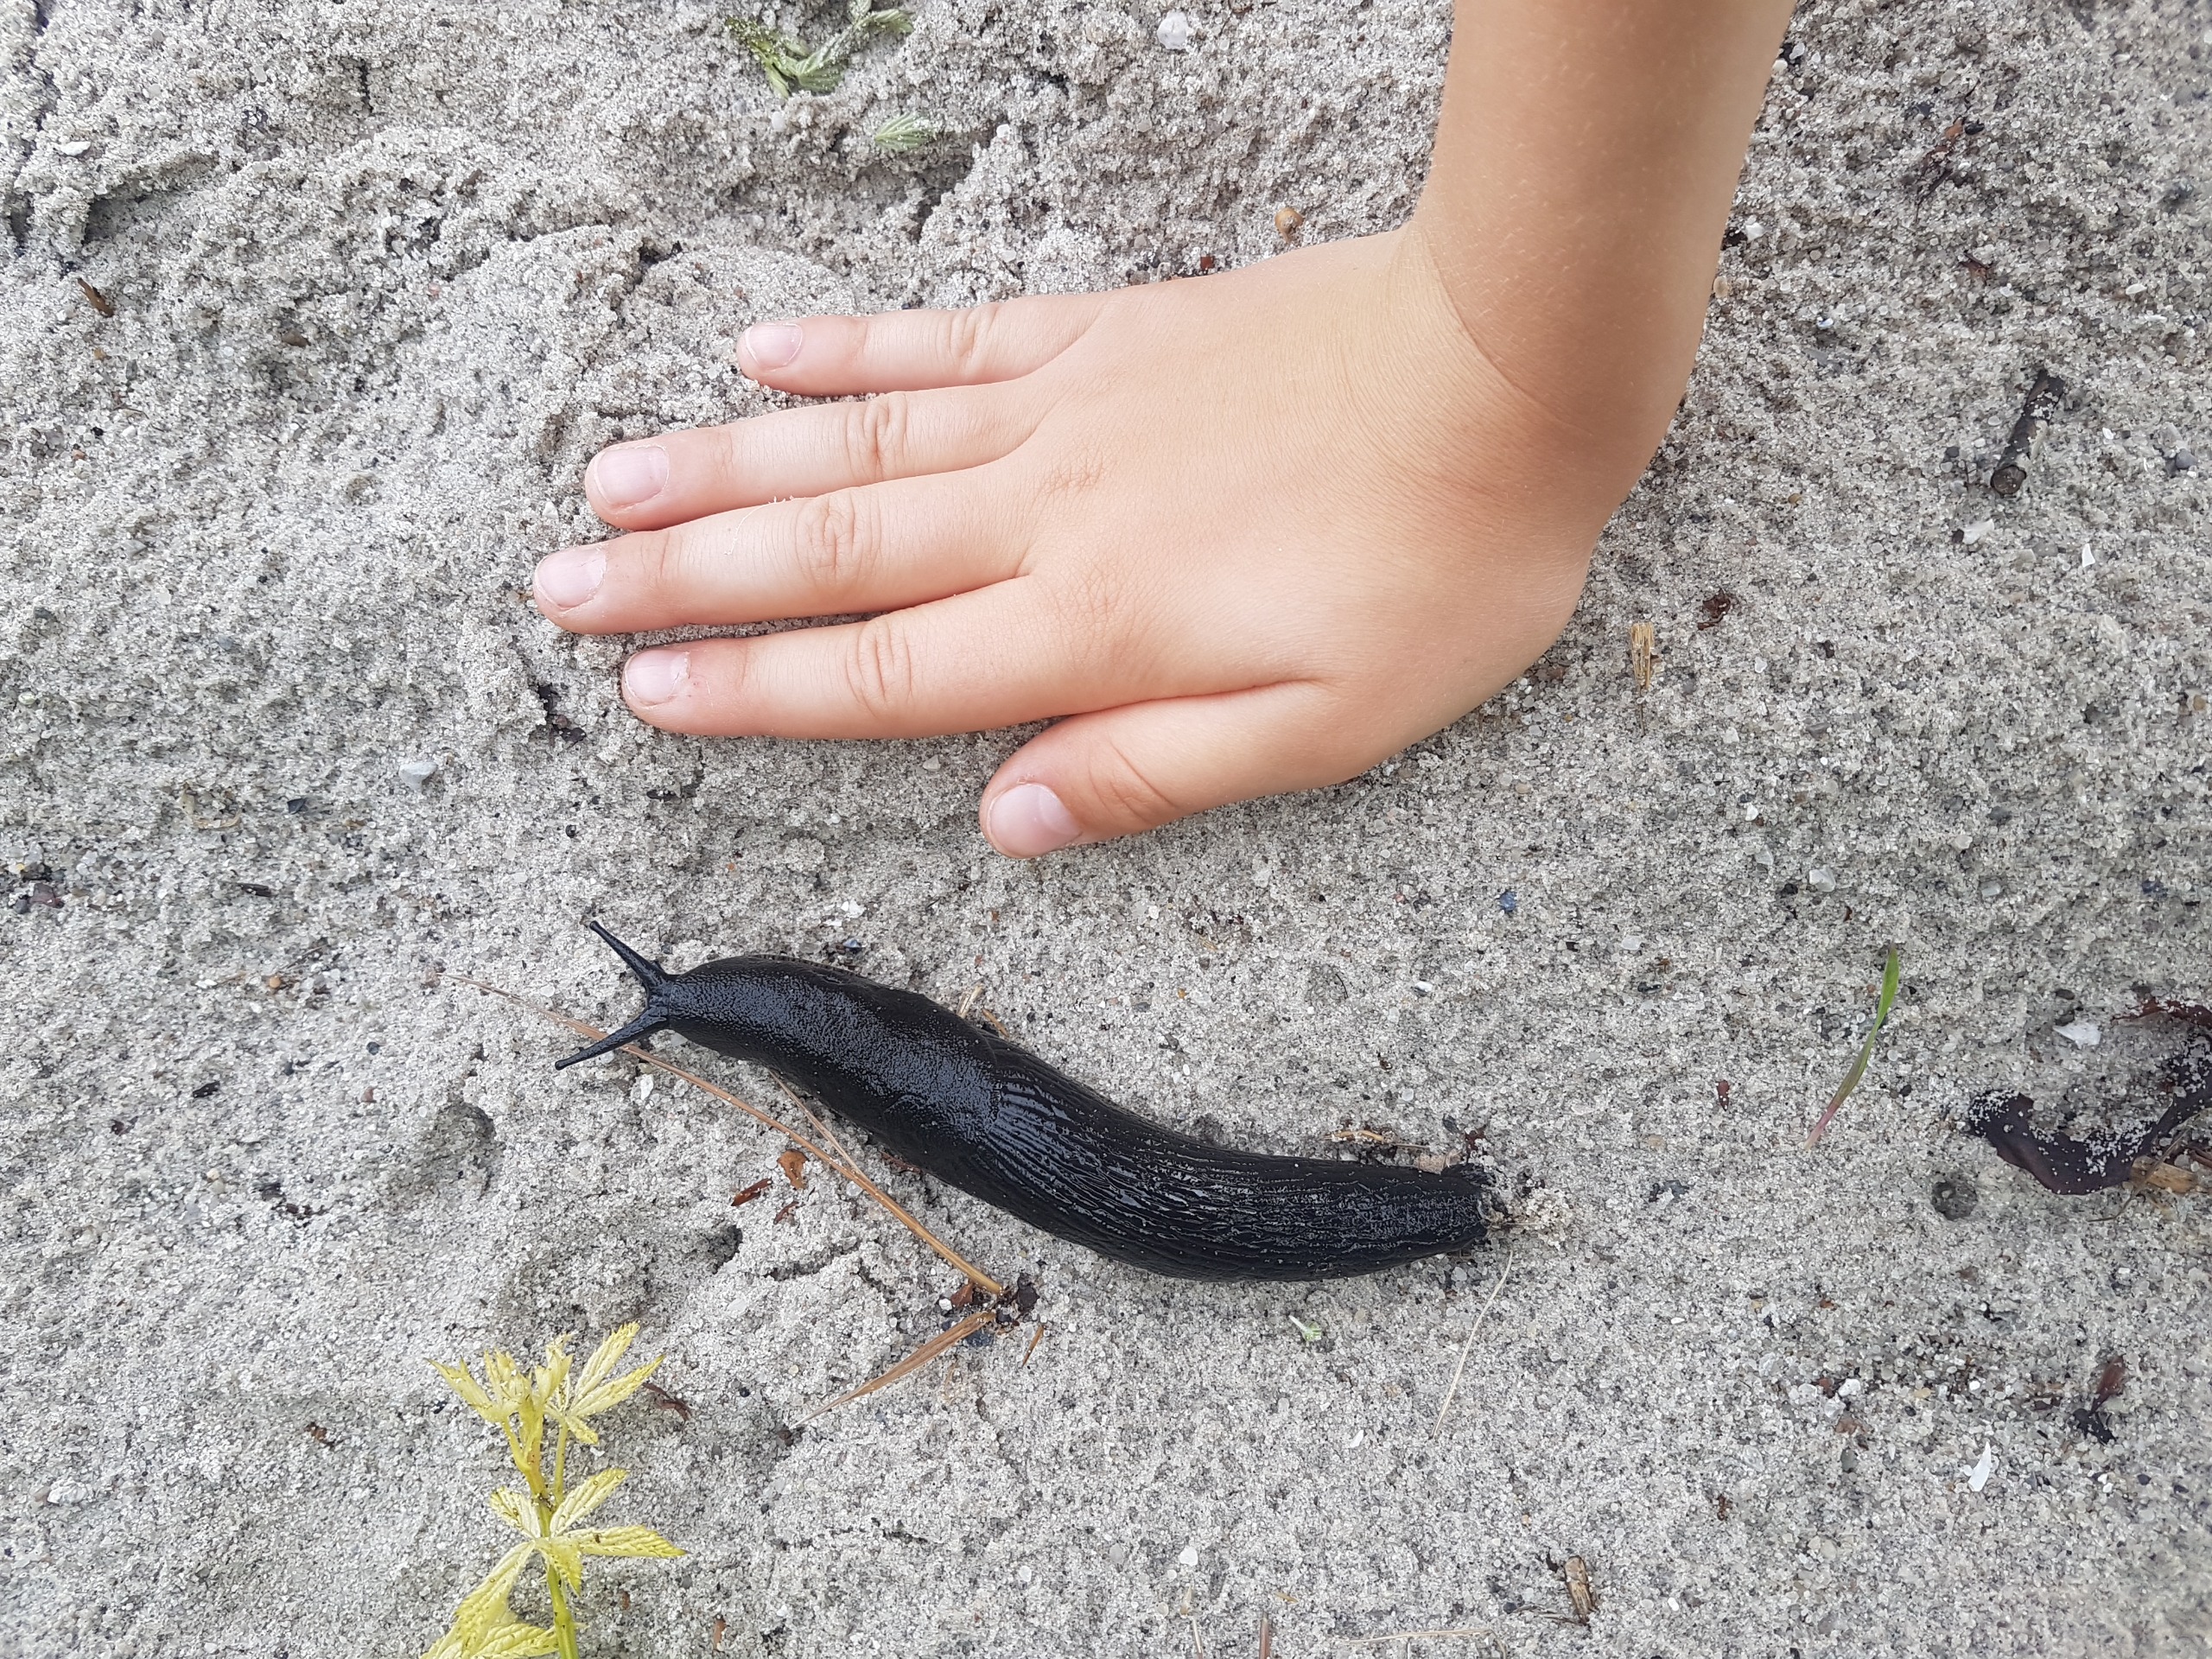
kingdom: Animalia
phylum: Mollusca
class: Gastropoda
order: Stylommatophora
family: Arionidae
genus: Arion
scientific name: Arion ater
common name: Sort skovsnegl
